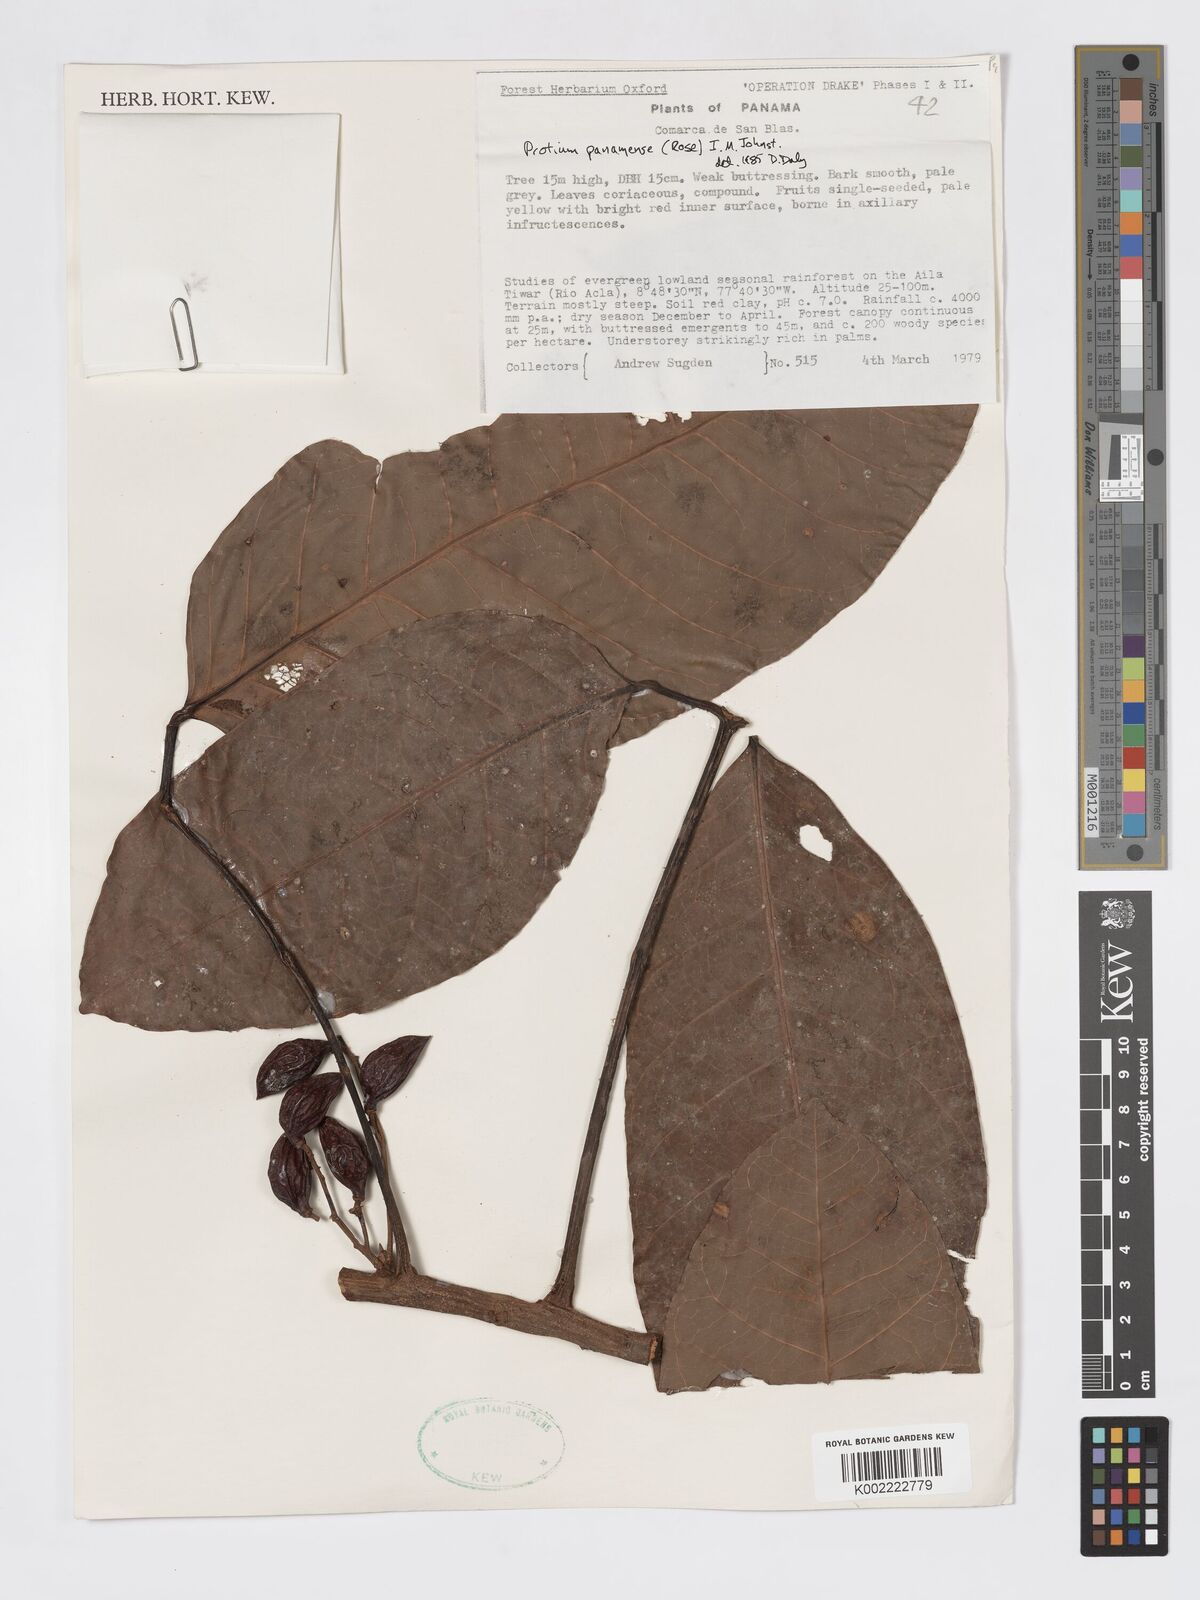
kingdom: Plantae
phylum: Tracheophyta
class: Magnoliopsida
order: Sapindales
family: Burseraceae
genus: Protium
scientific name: Protium panamense
